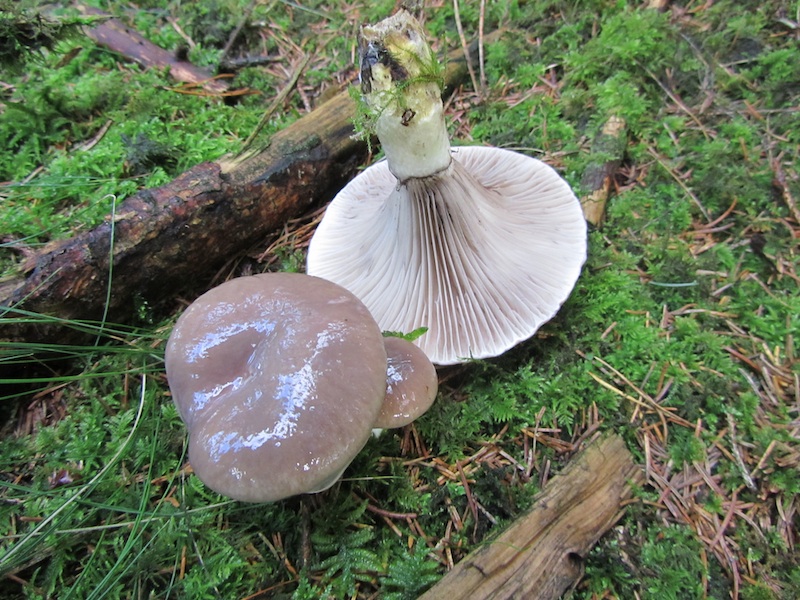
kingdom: Fungi
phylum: Basidiomycota
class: Agaricomycetes
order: Boletales
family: Gomphidiaceae
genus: Gomphidius
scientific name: Gomphidius glutinosus
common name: grå slimslør
